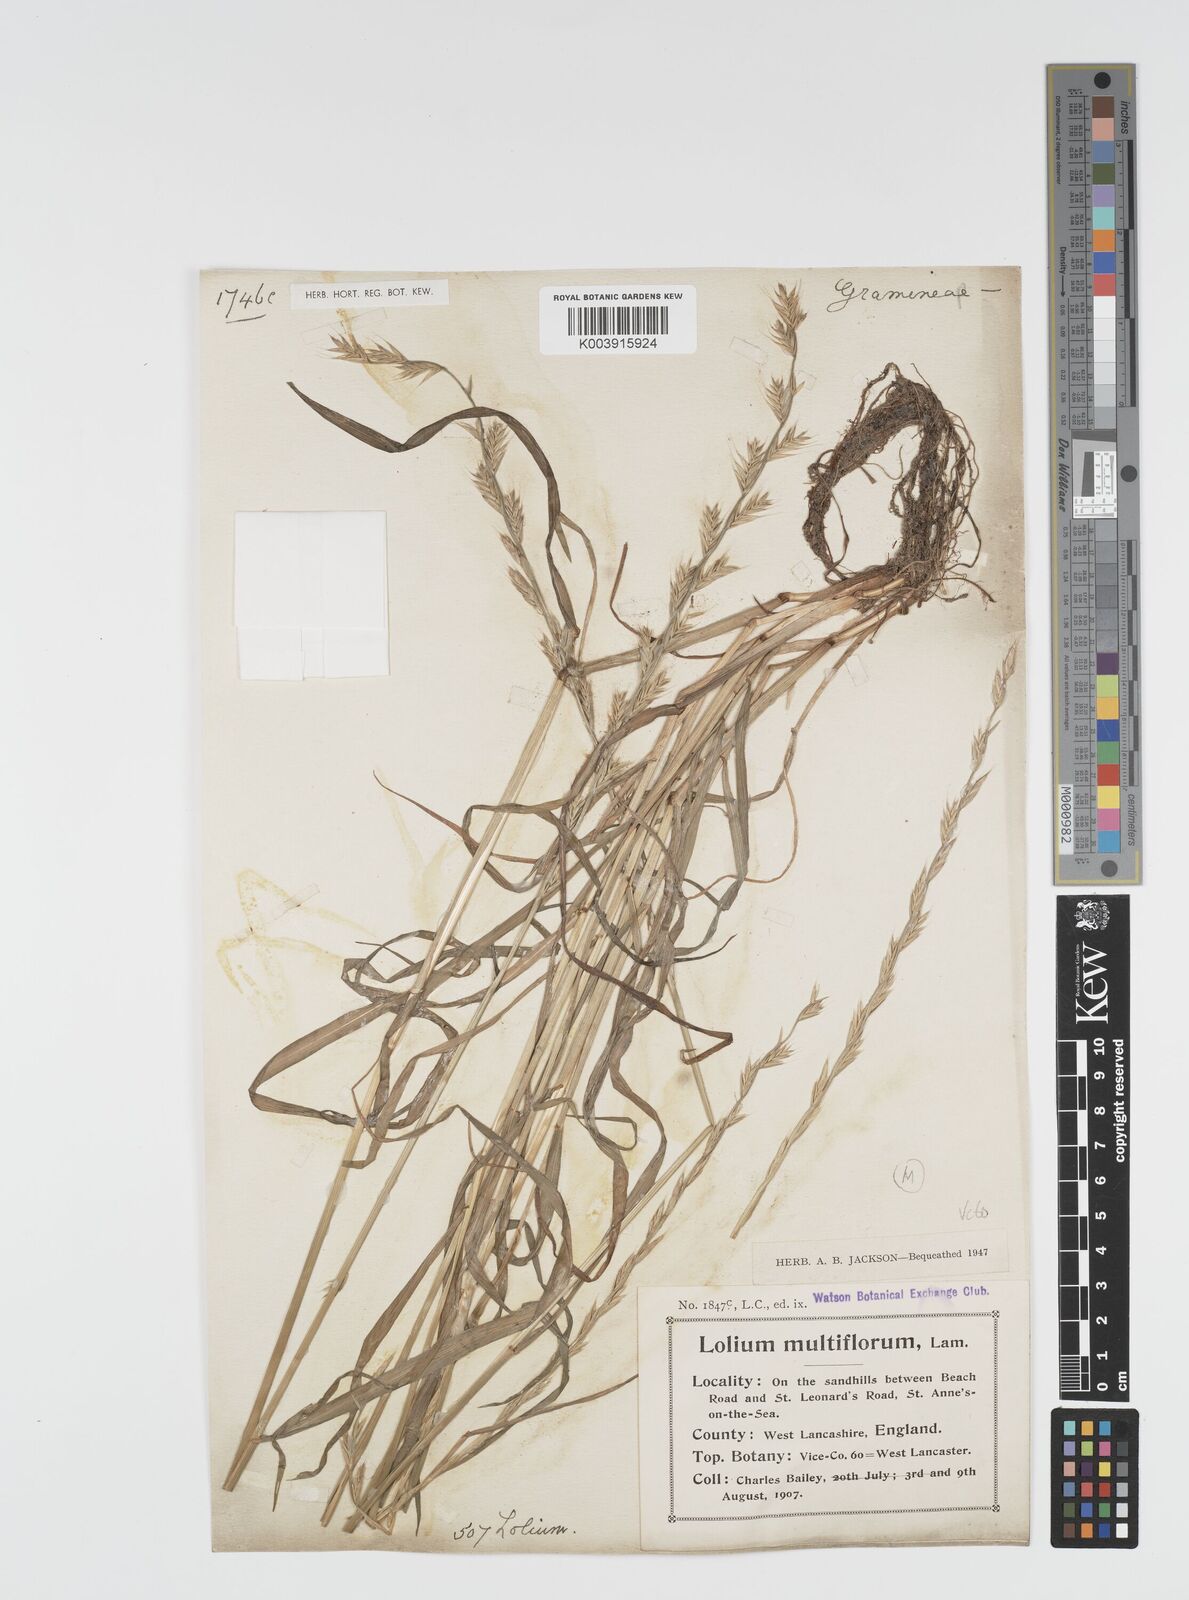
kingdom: Plantae
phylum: Tracheophyta
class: Liliopsida
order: Poales
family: Poaceae
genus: Lolium
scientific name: Lolium multiflorum
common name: Annual ryegrass
